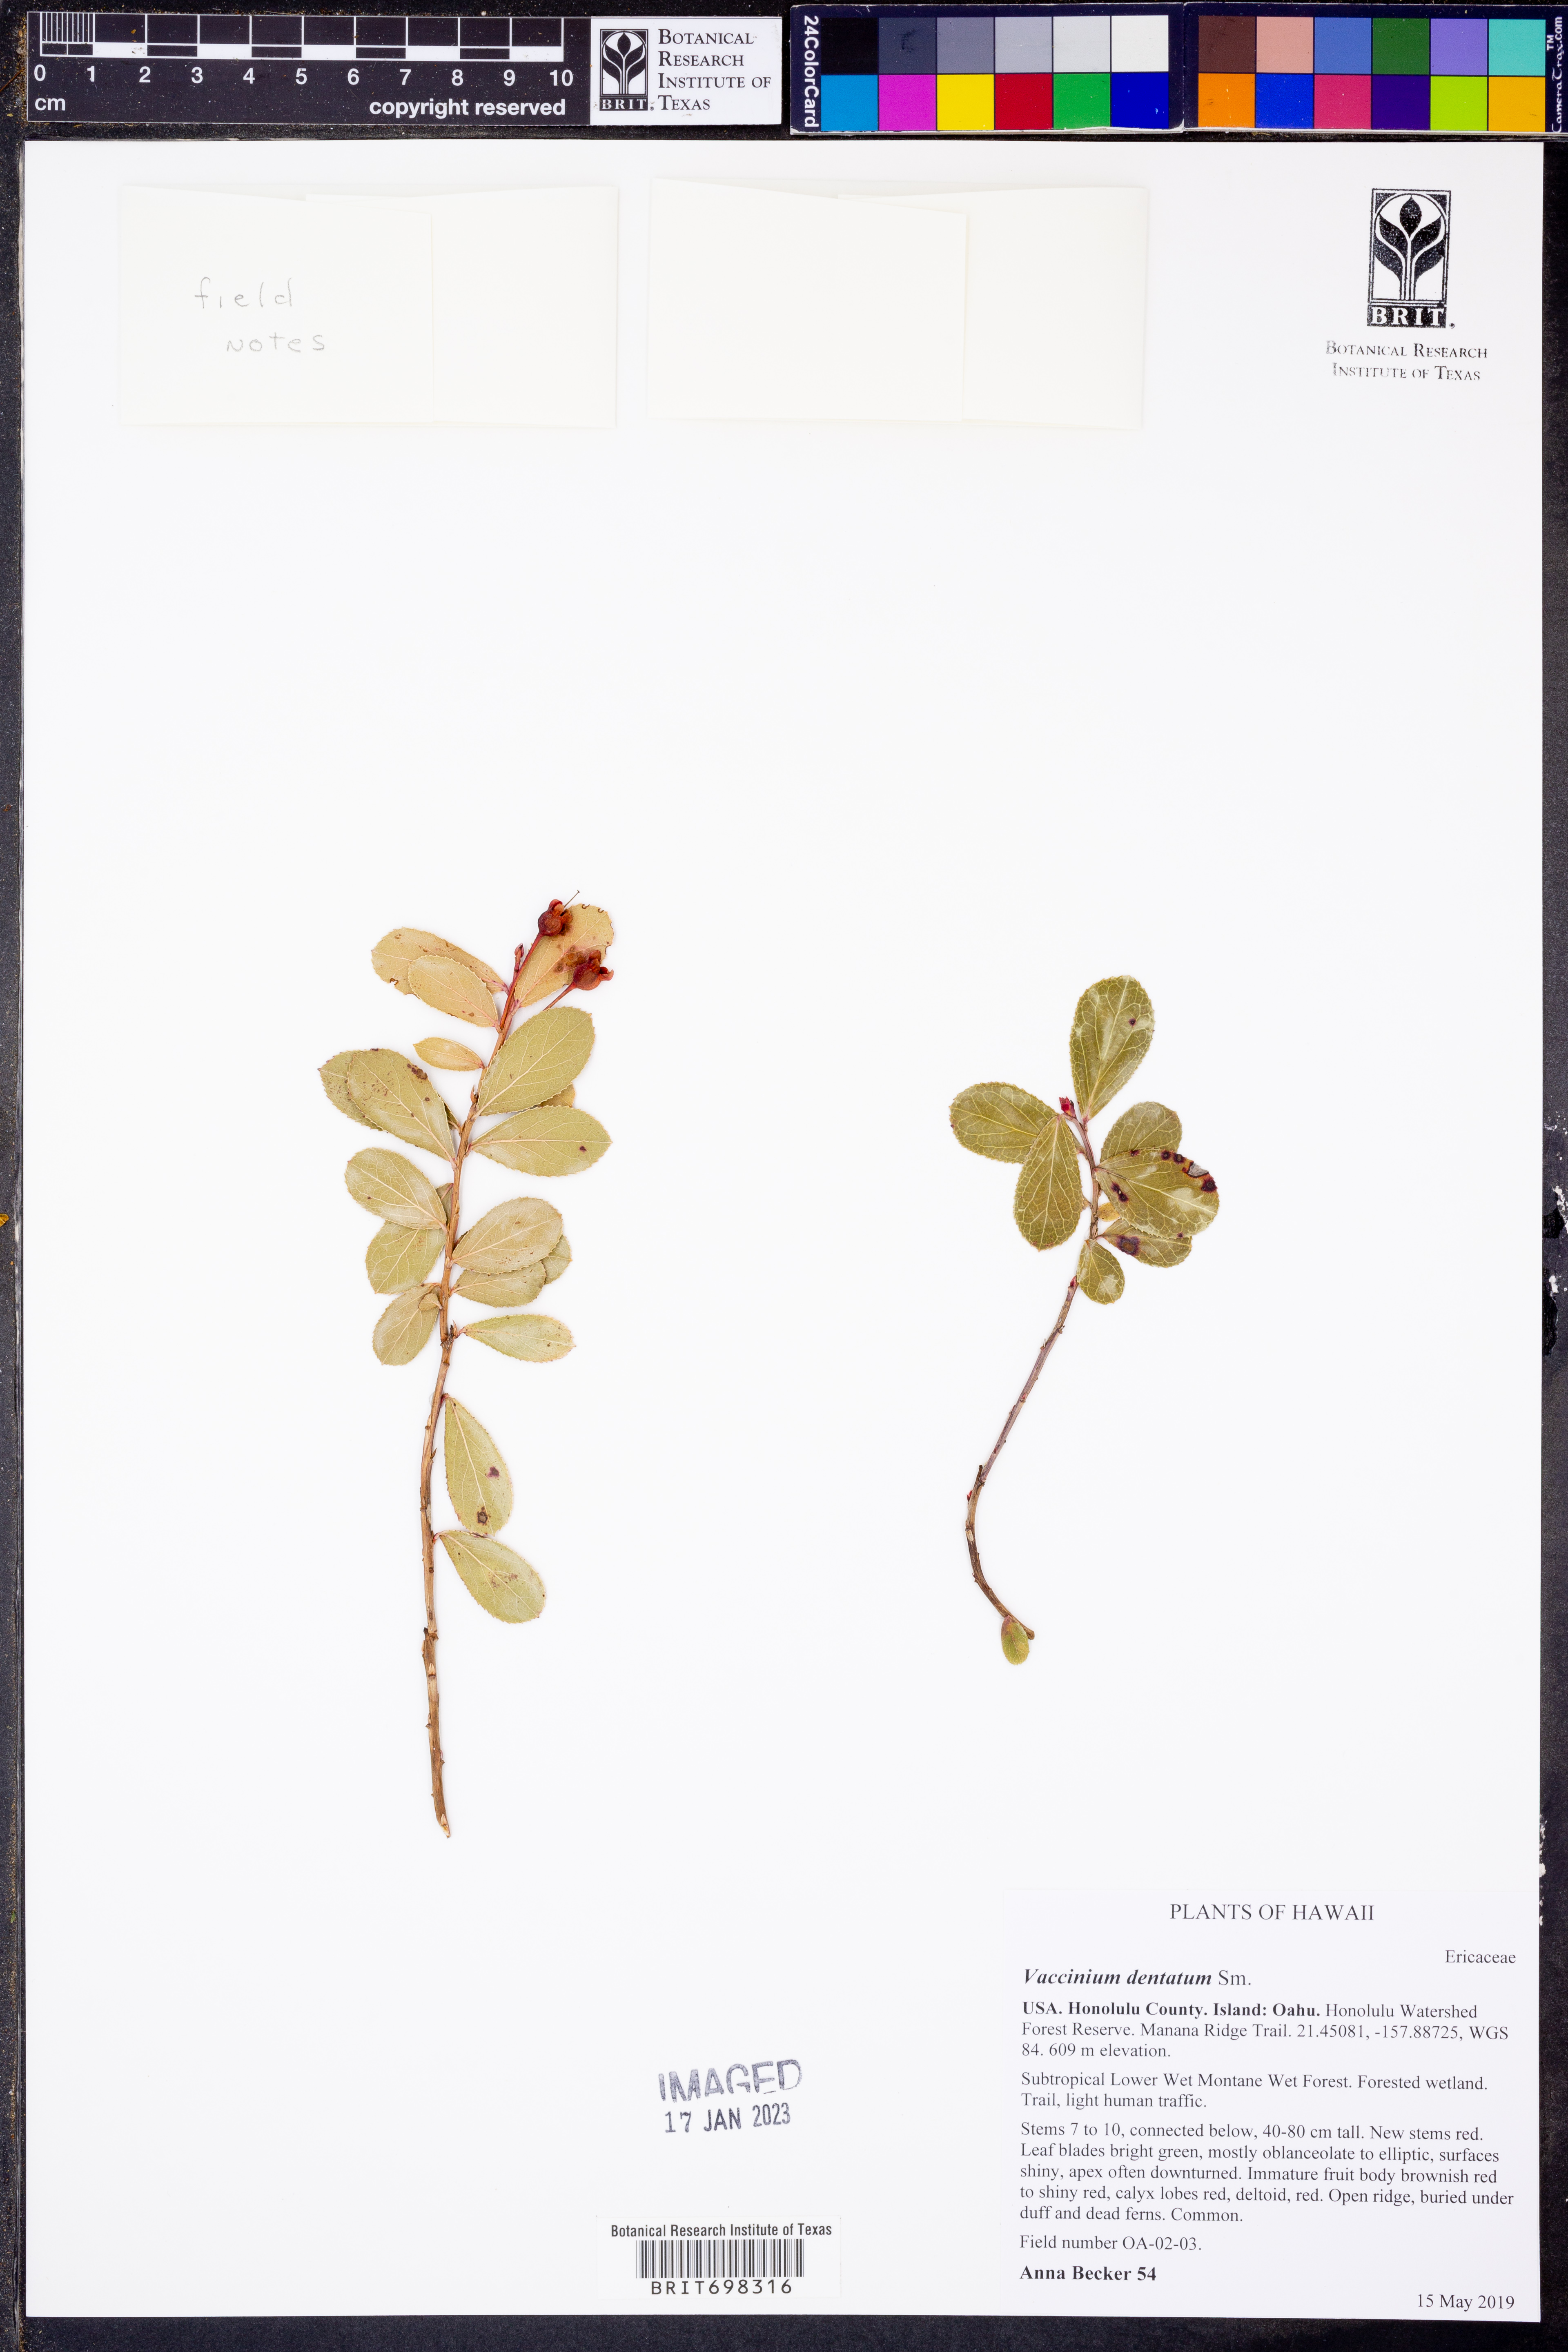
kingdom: Plantae
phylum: Tracheophyta
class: Magnoliopsida
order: Ericales
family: Ericaceae
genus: Vaccinium
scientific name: Vaccinium dentatum
